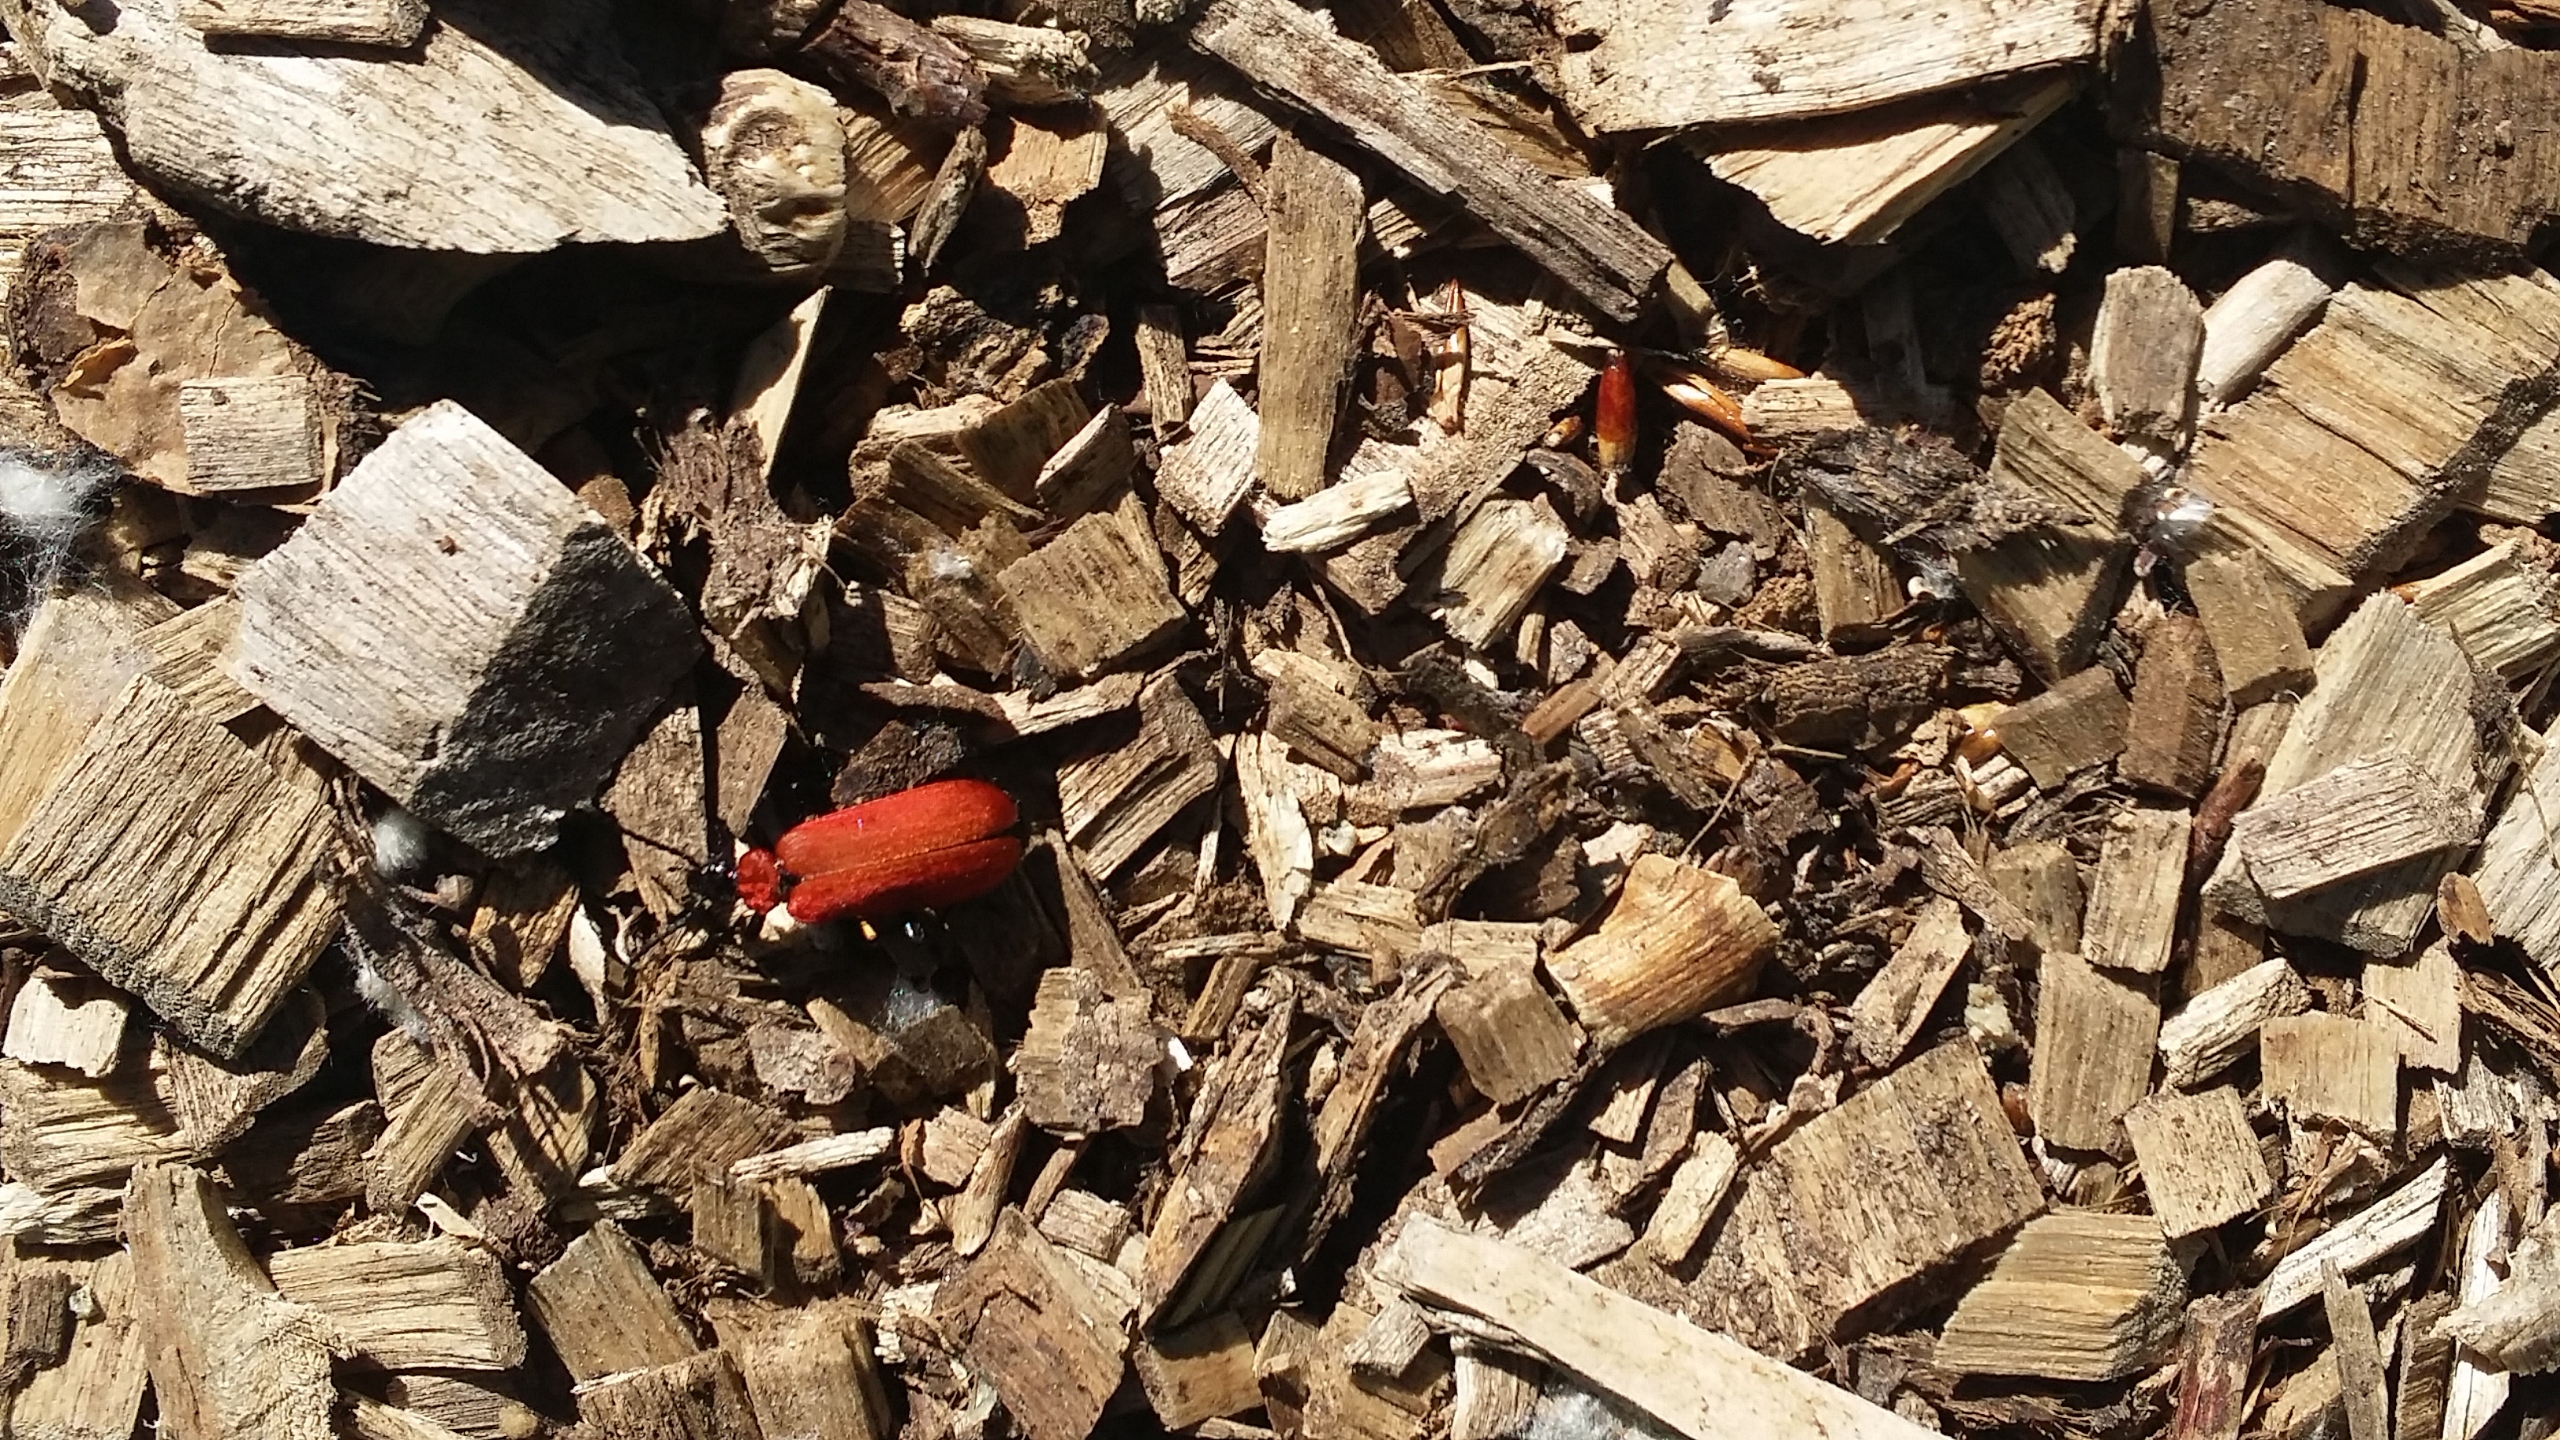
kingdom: Animalia
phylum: Arthropoda
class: Insecta
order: Coleoptera
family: Pyrochroidae
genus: Pyrochroa
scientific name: Pyrochroa coccinea
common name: Sorthovedet kardinalbille
